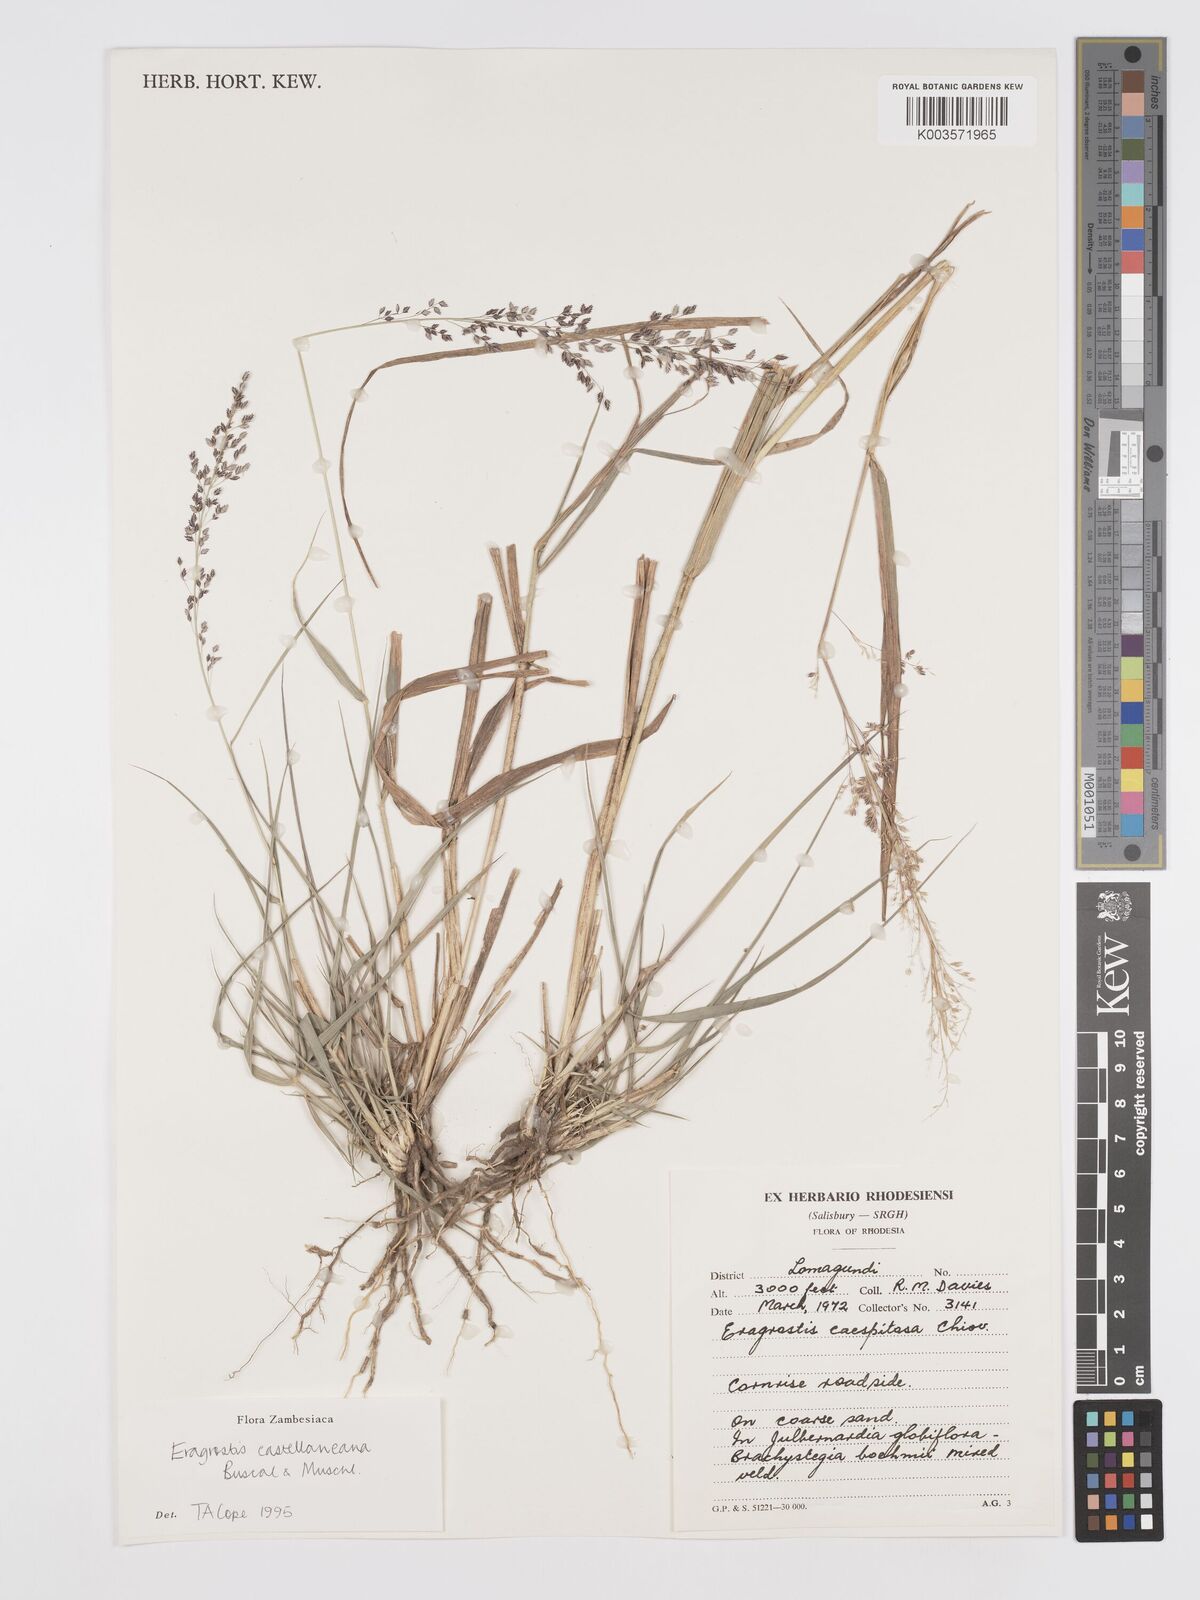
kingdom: Plantae
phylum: Tracheophyta
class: Liliopsida
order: Poales
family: Poaceae
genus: Eragrostis
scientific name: Eragrostis castellaneana
